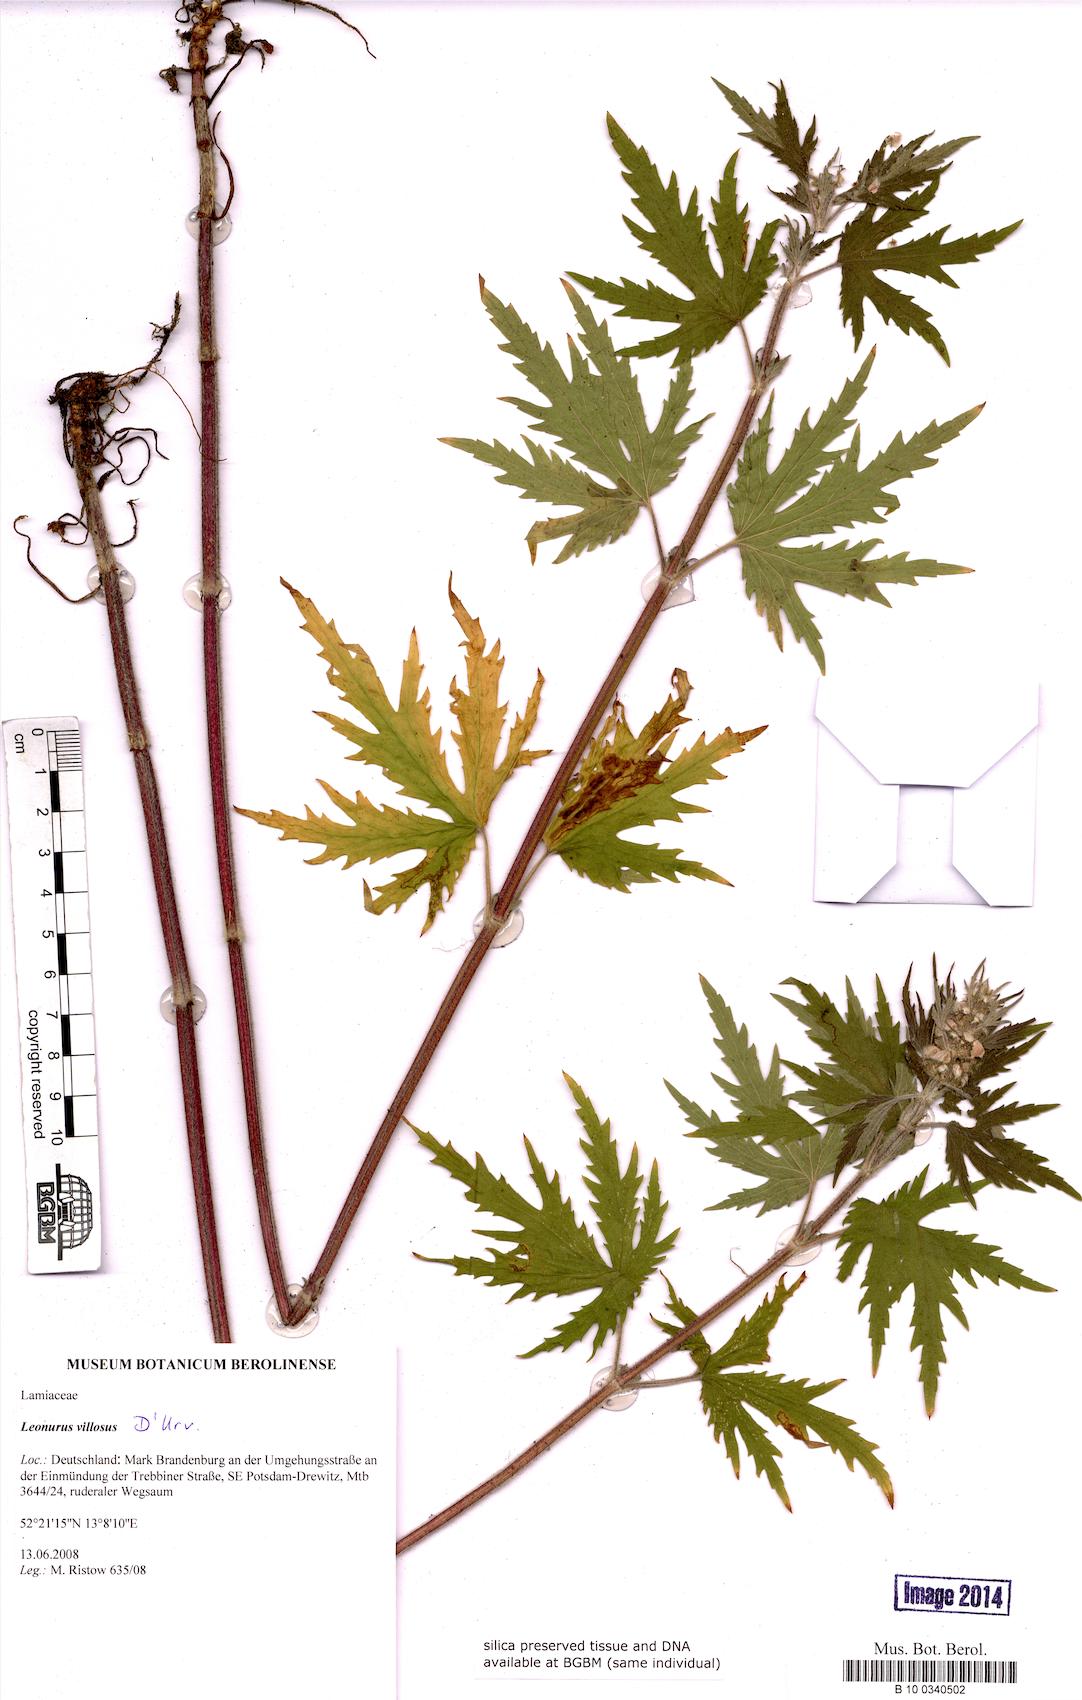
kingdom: Plantae
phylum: Tracheophyta
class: Magnoliopsida
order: Lamiales
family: Lamiaceae
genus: Leonurus
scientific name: Leonurus quinquelobatus
